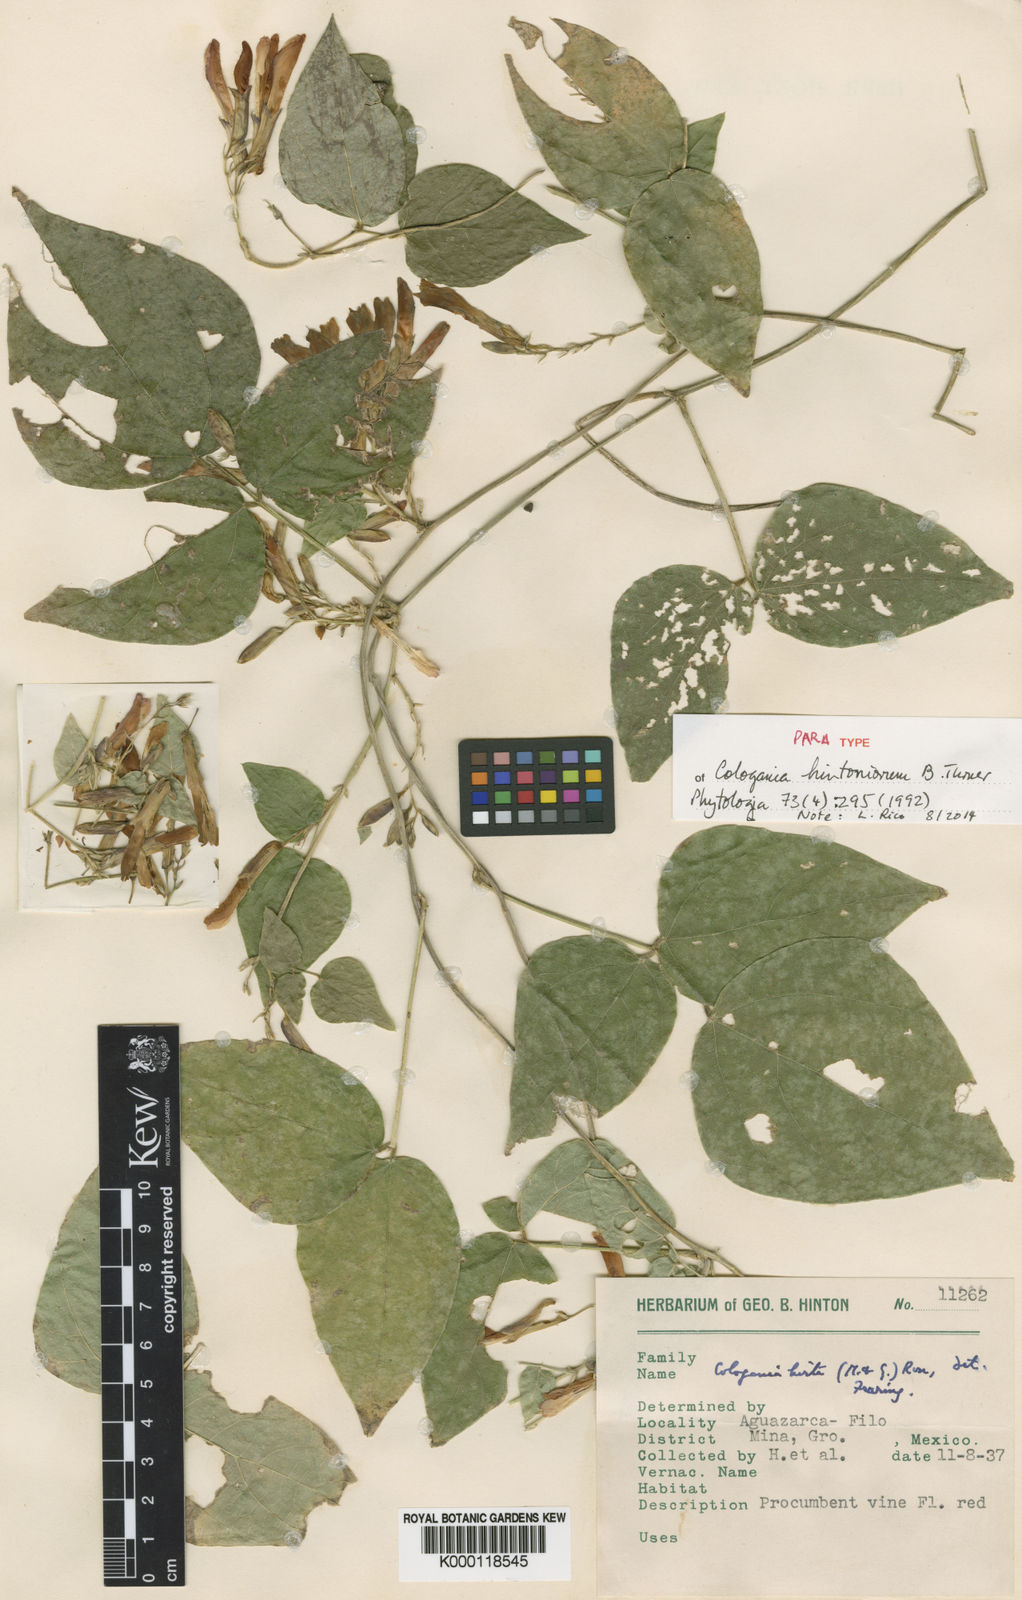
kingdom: Plantae
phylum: Tracheophyta
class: Magnoliopsida
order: Fabales
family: Fabaceae
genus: Cologania
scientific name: Cologania hintoniorum
